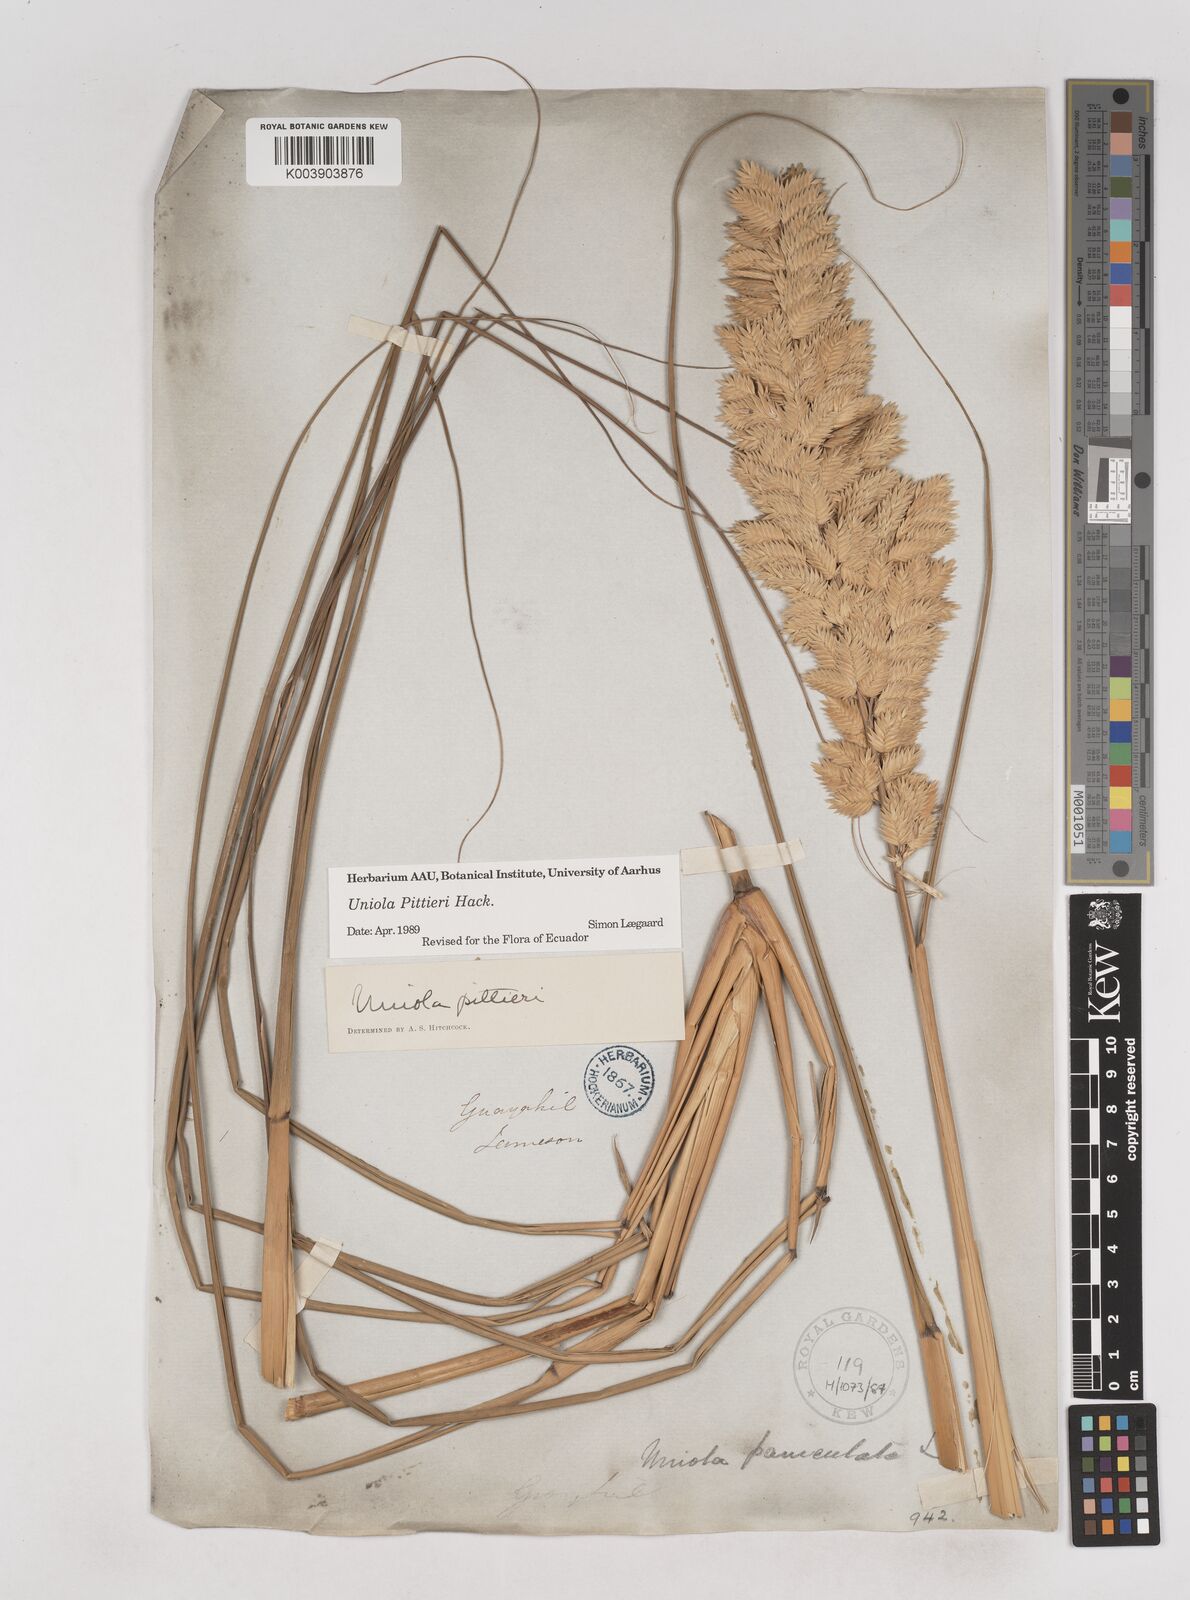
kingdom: Plantae
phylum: Tracheophyta
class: Liliopsida
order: Poales
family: Poaceae
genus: Uniola
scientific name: Uniola pittieri
